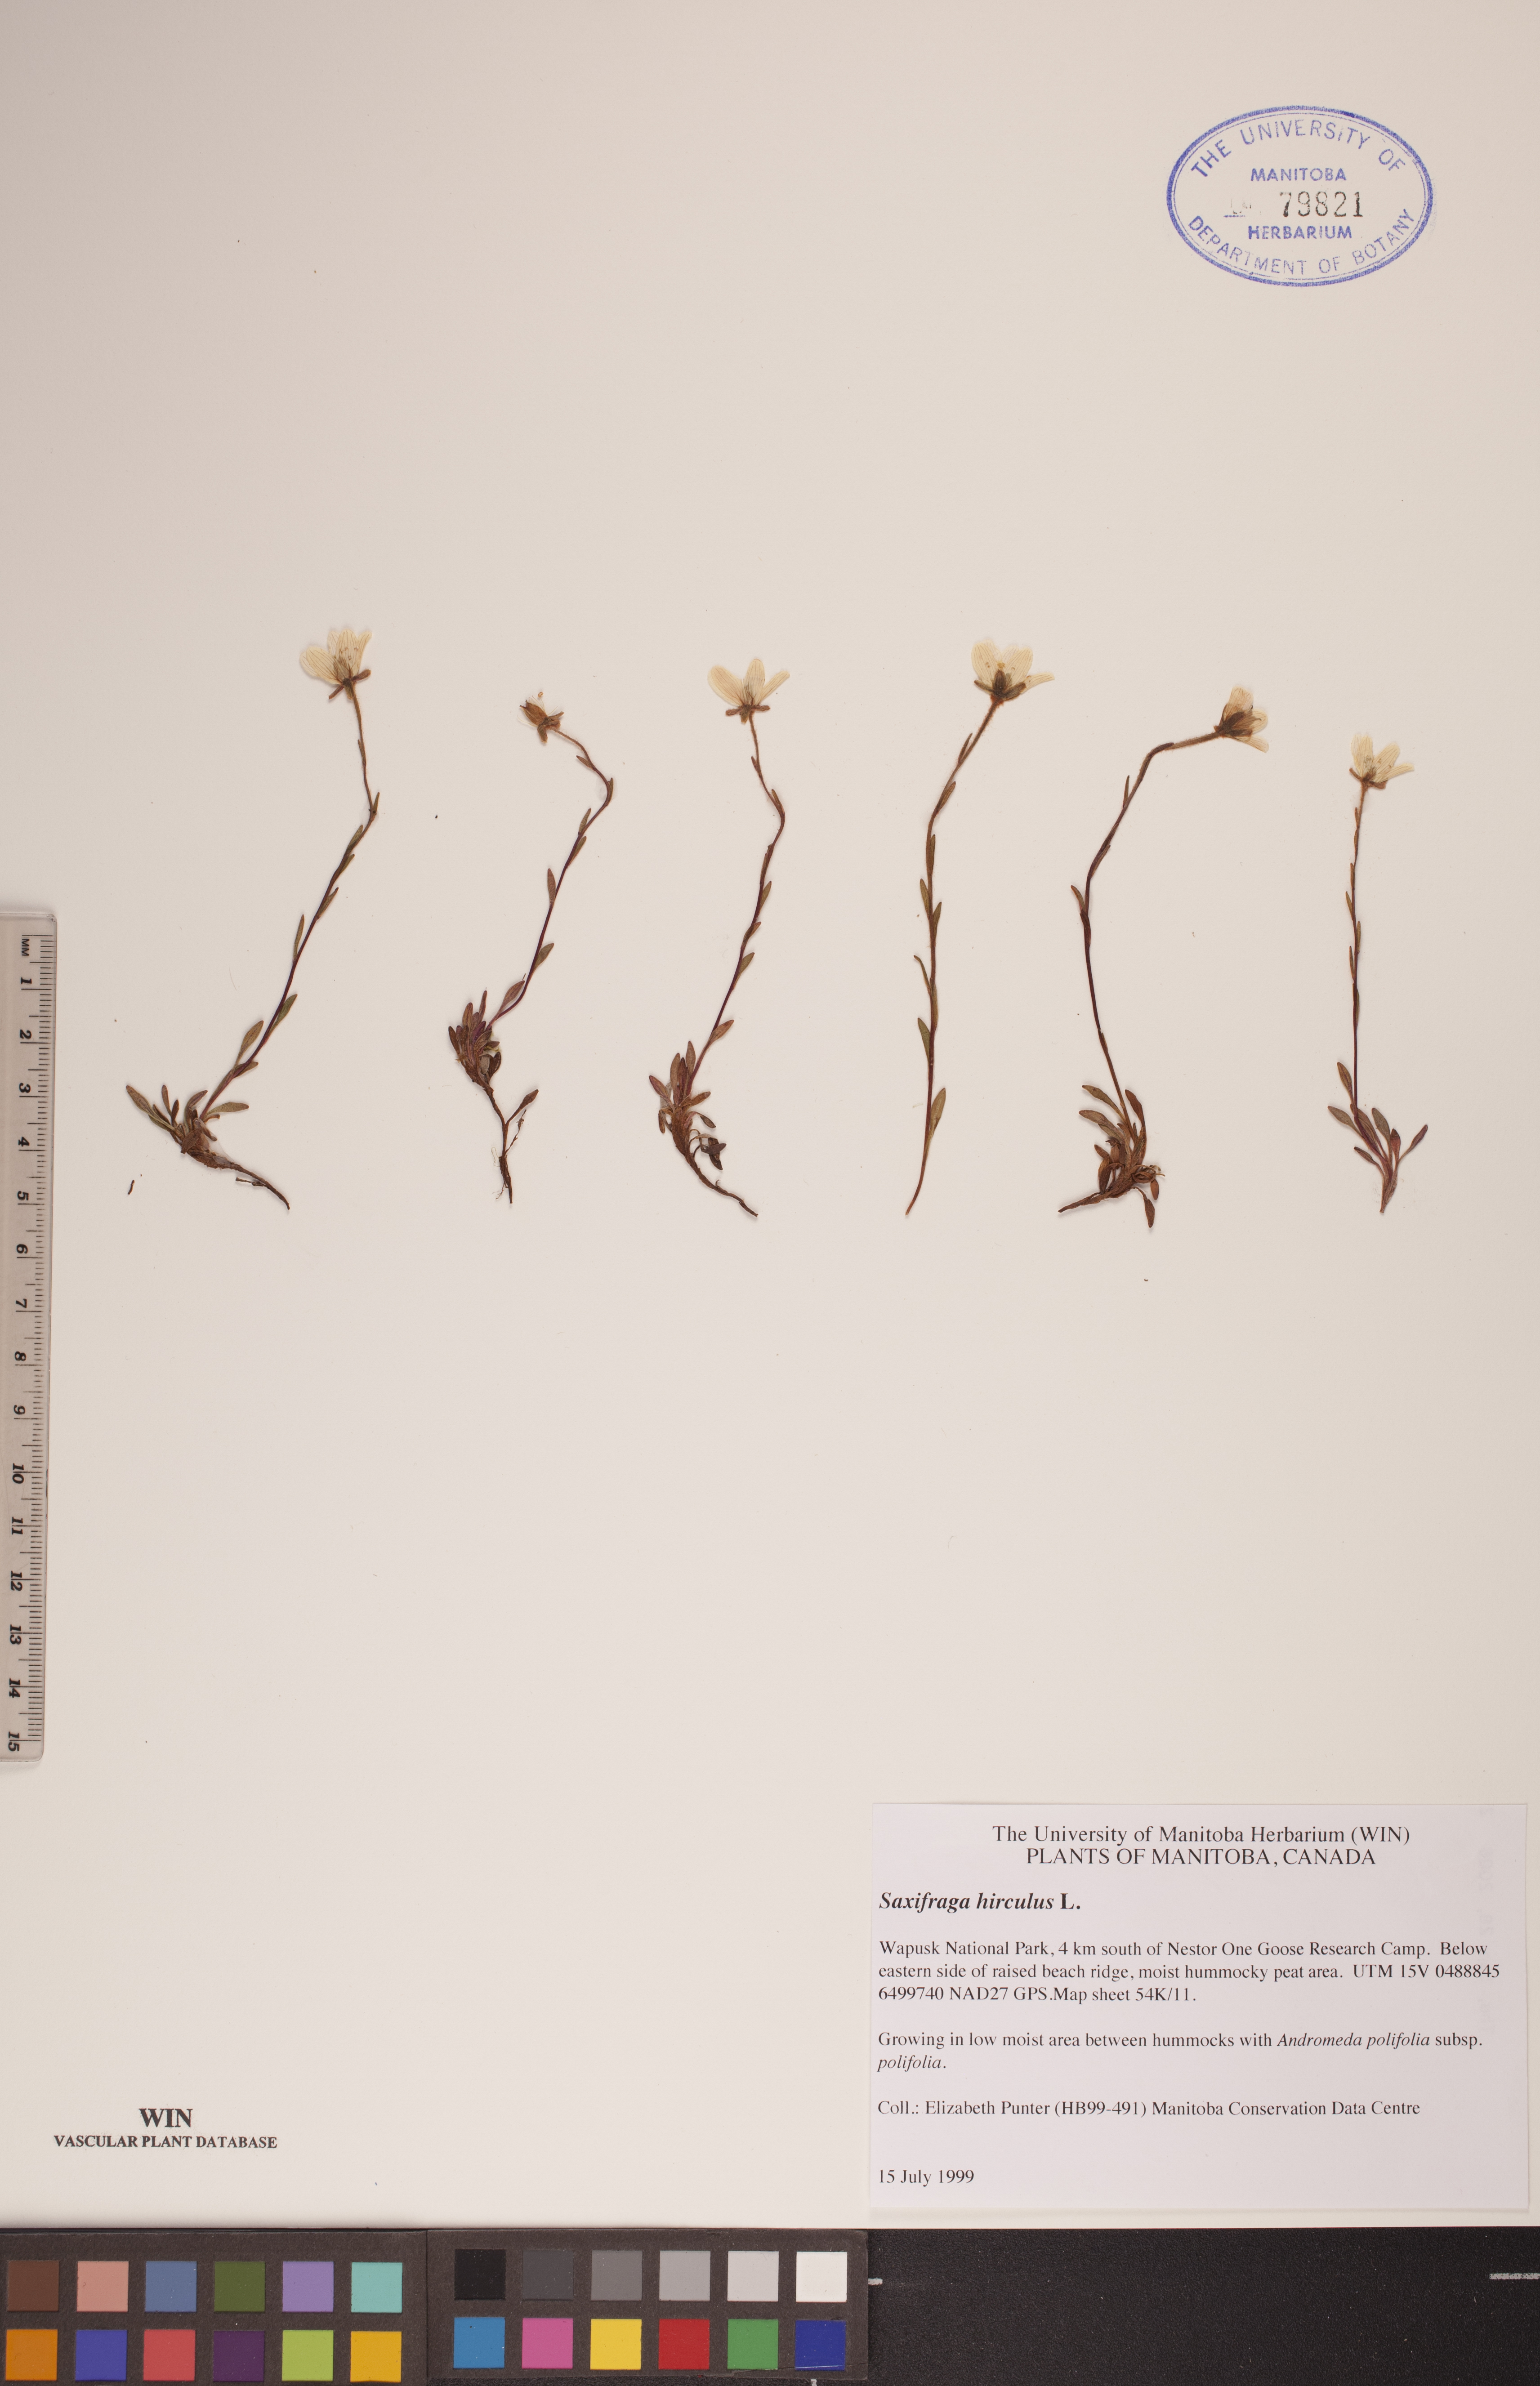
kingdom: Plantae
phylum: Tracheophyta
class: Magnoliopsida
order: Saxifragales
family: Saxifragaceae
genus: Saxifraga
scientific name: Saxifraga hirculus
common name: Yellow marsh saxifrage
